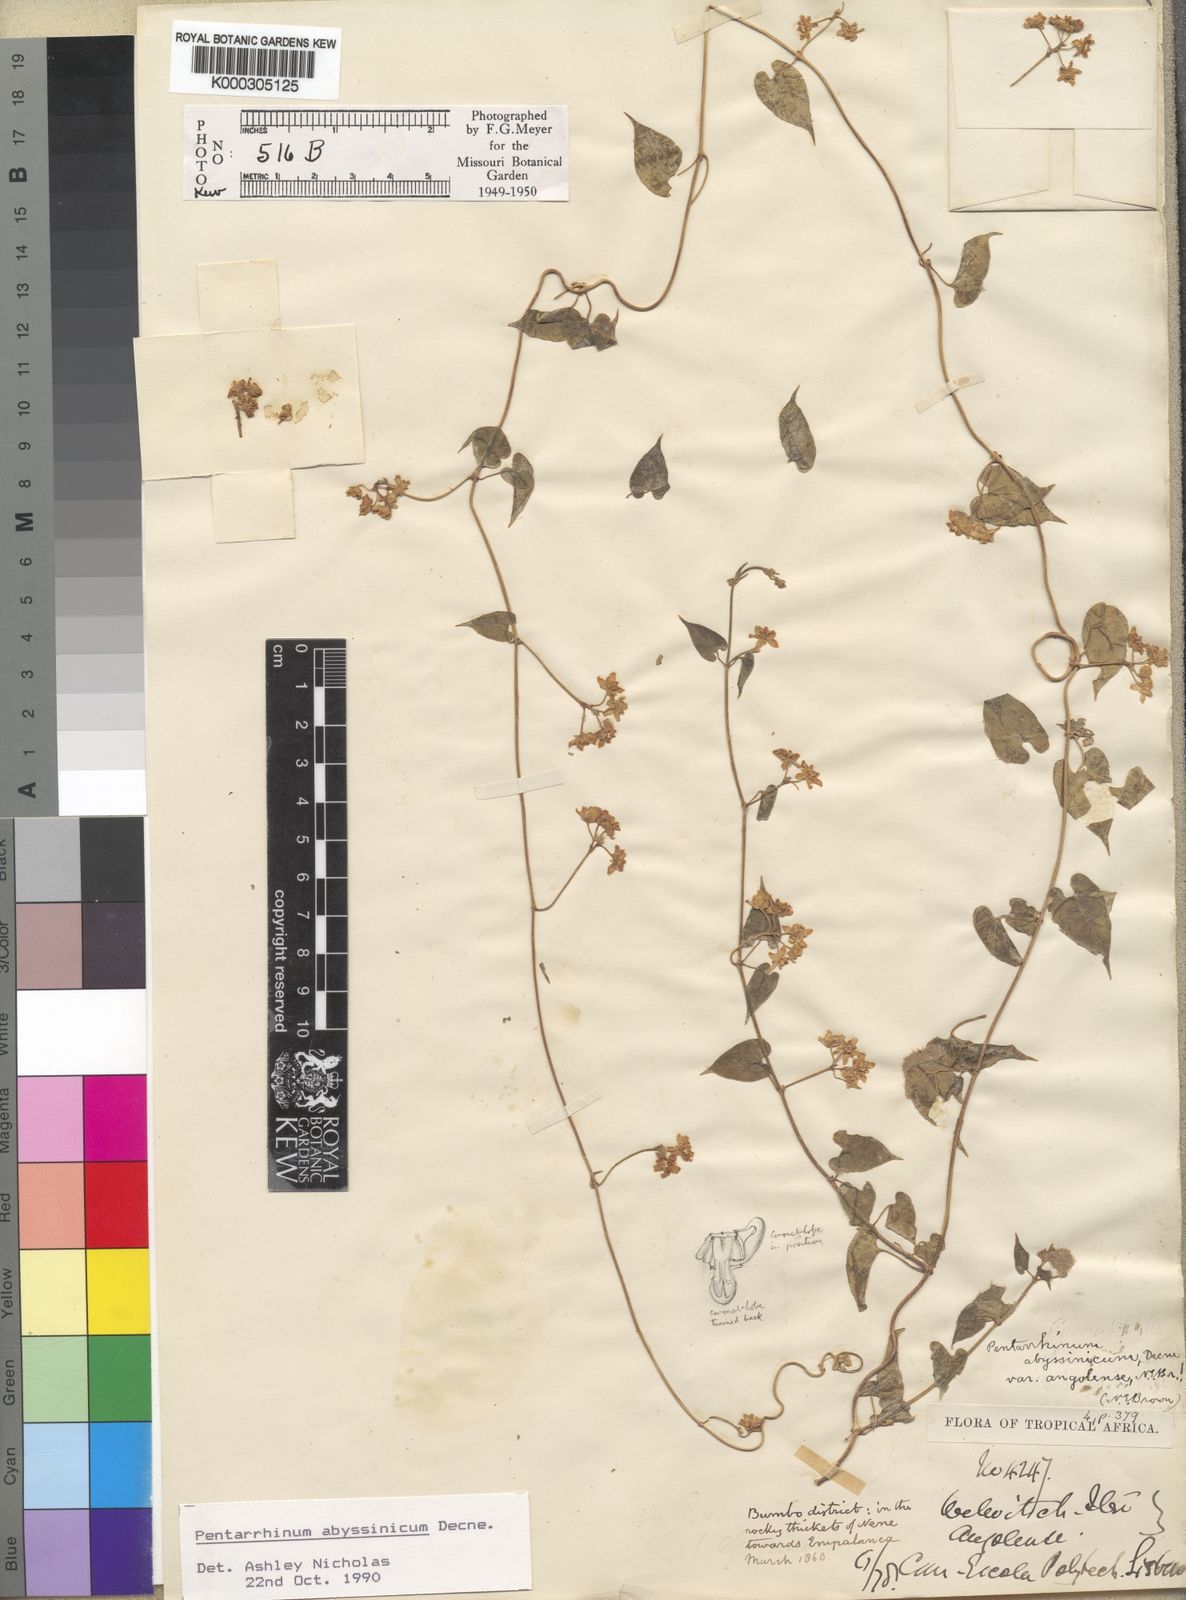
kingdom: Plantae
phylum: Tracheophyta
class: Magnoliopsida
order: Gentianales
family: Apocynaceae
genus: Cynanchum
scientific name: Cynanchum ethiopicum
